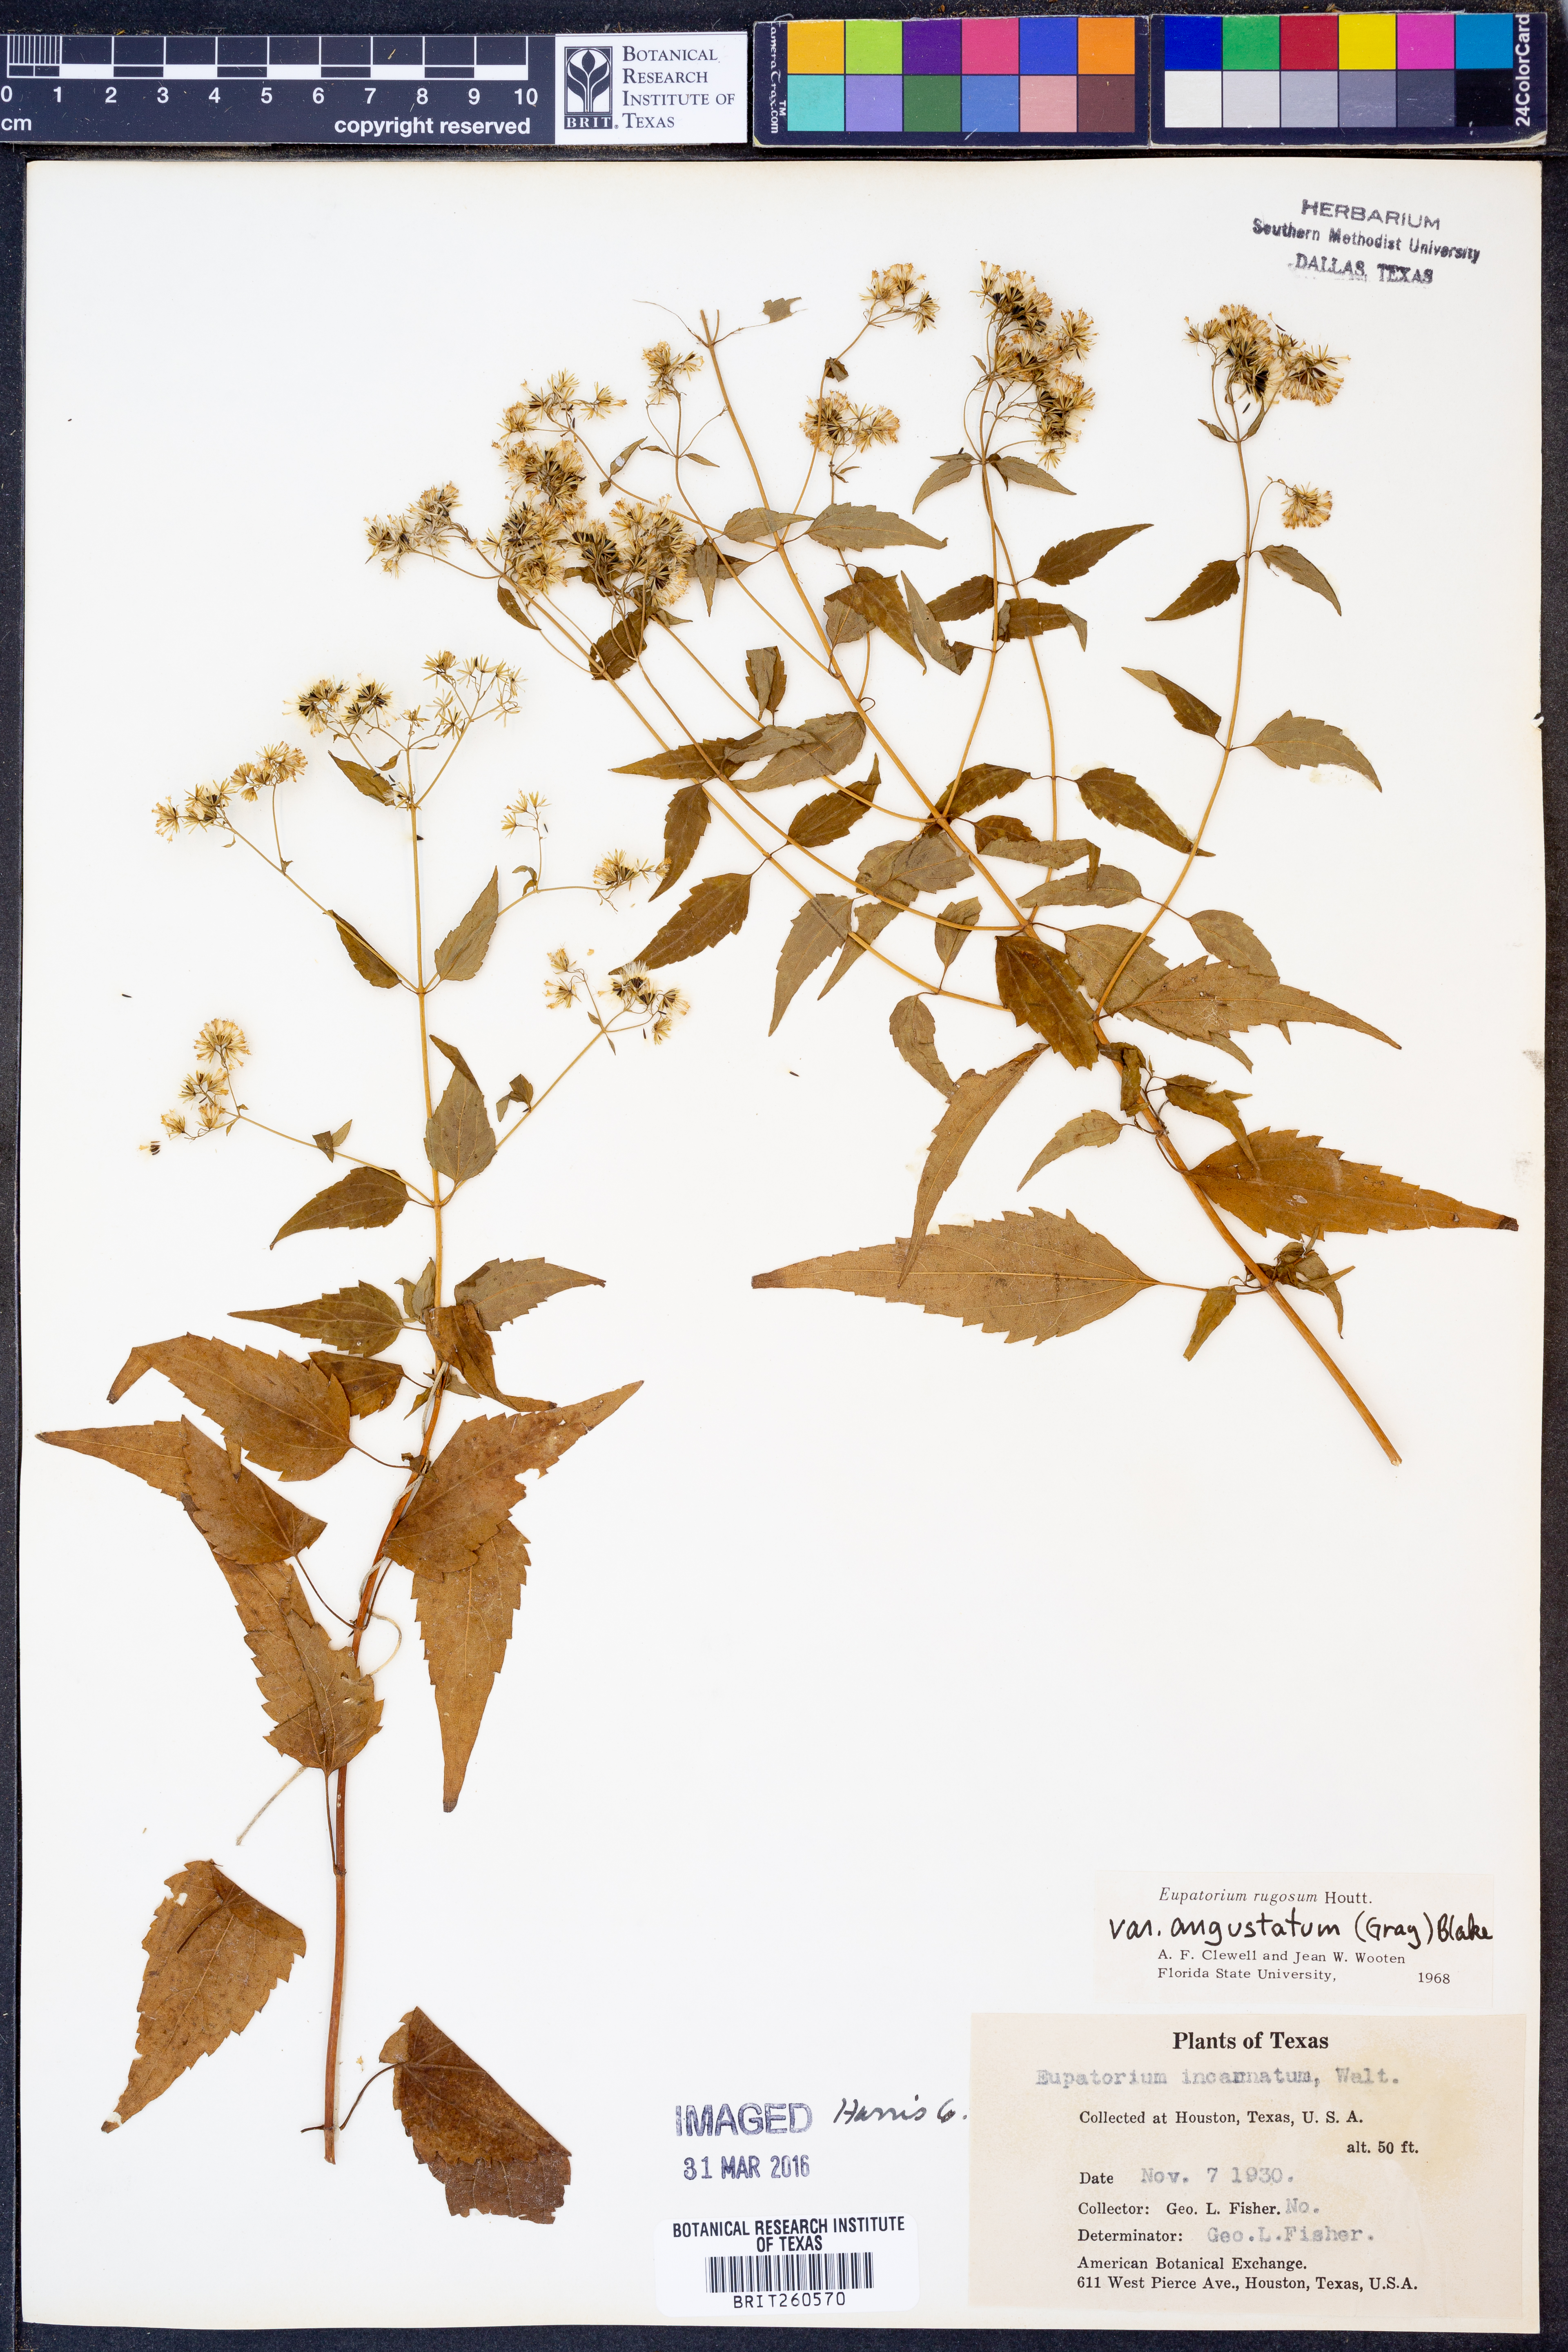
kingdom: Plantae
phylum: Tracheophyta
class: Magnoliopsida
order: Asterales
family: Asteraceae
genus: Ageratina
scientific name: Ageratina altissima
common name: White snakeroot
